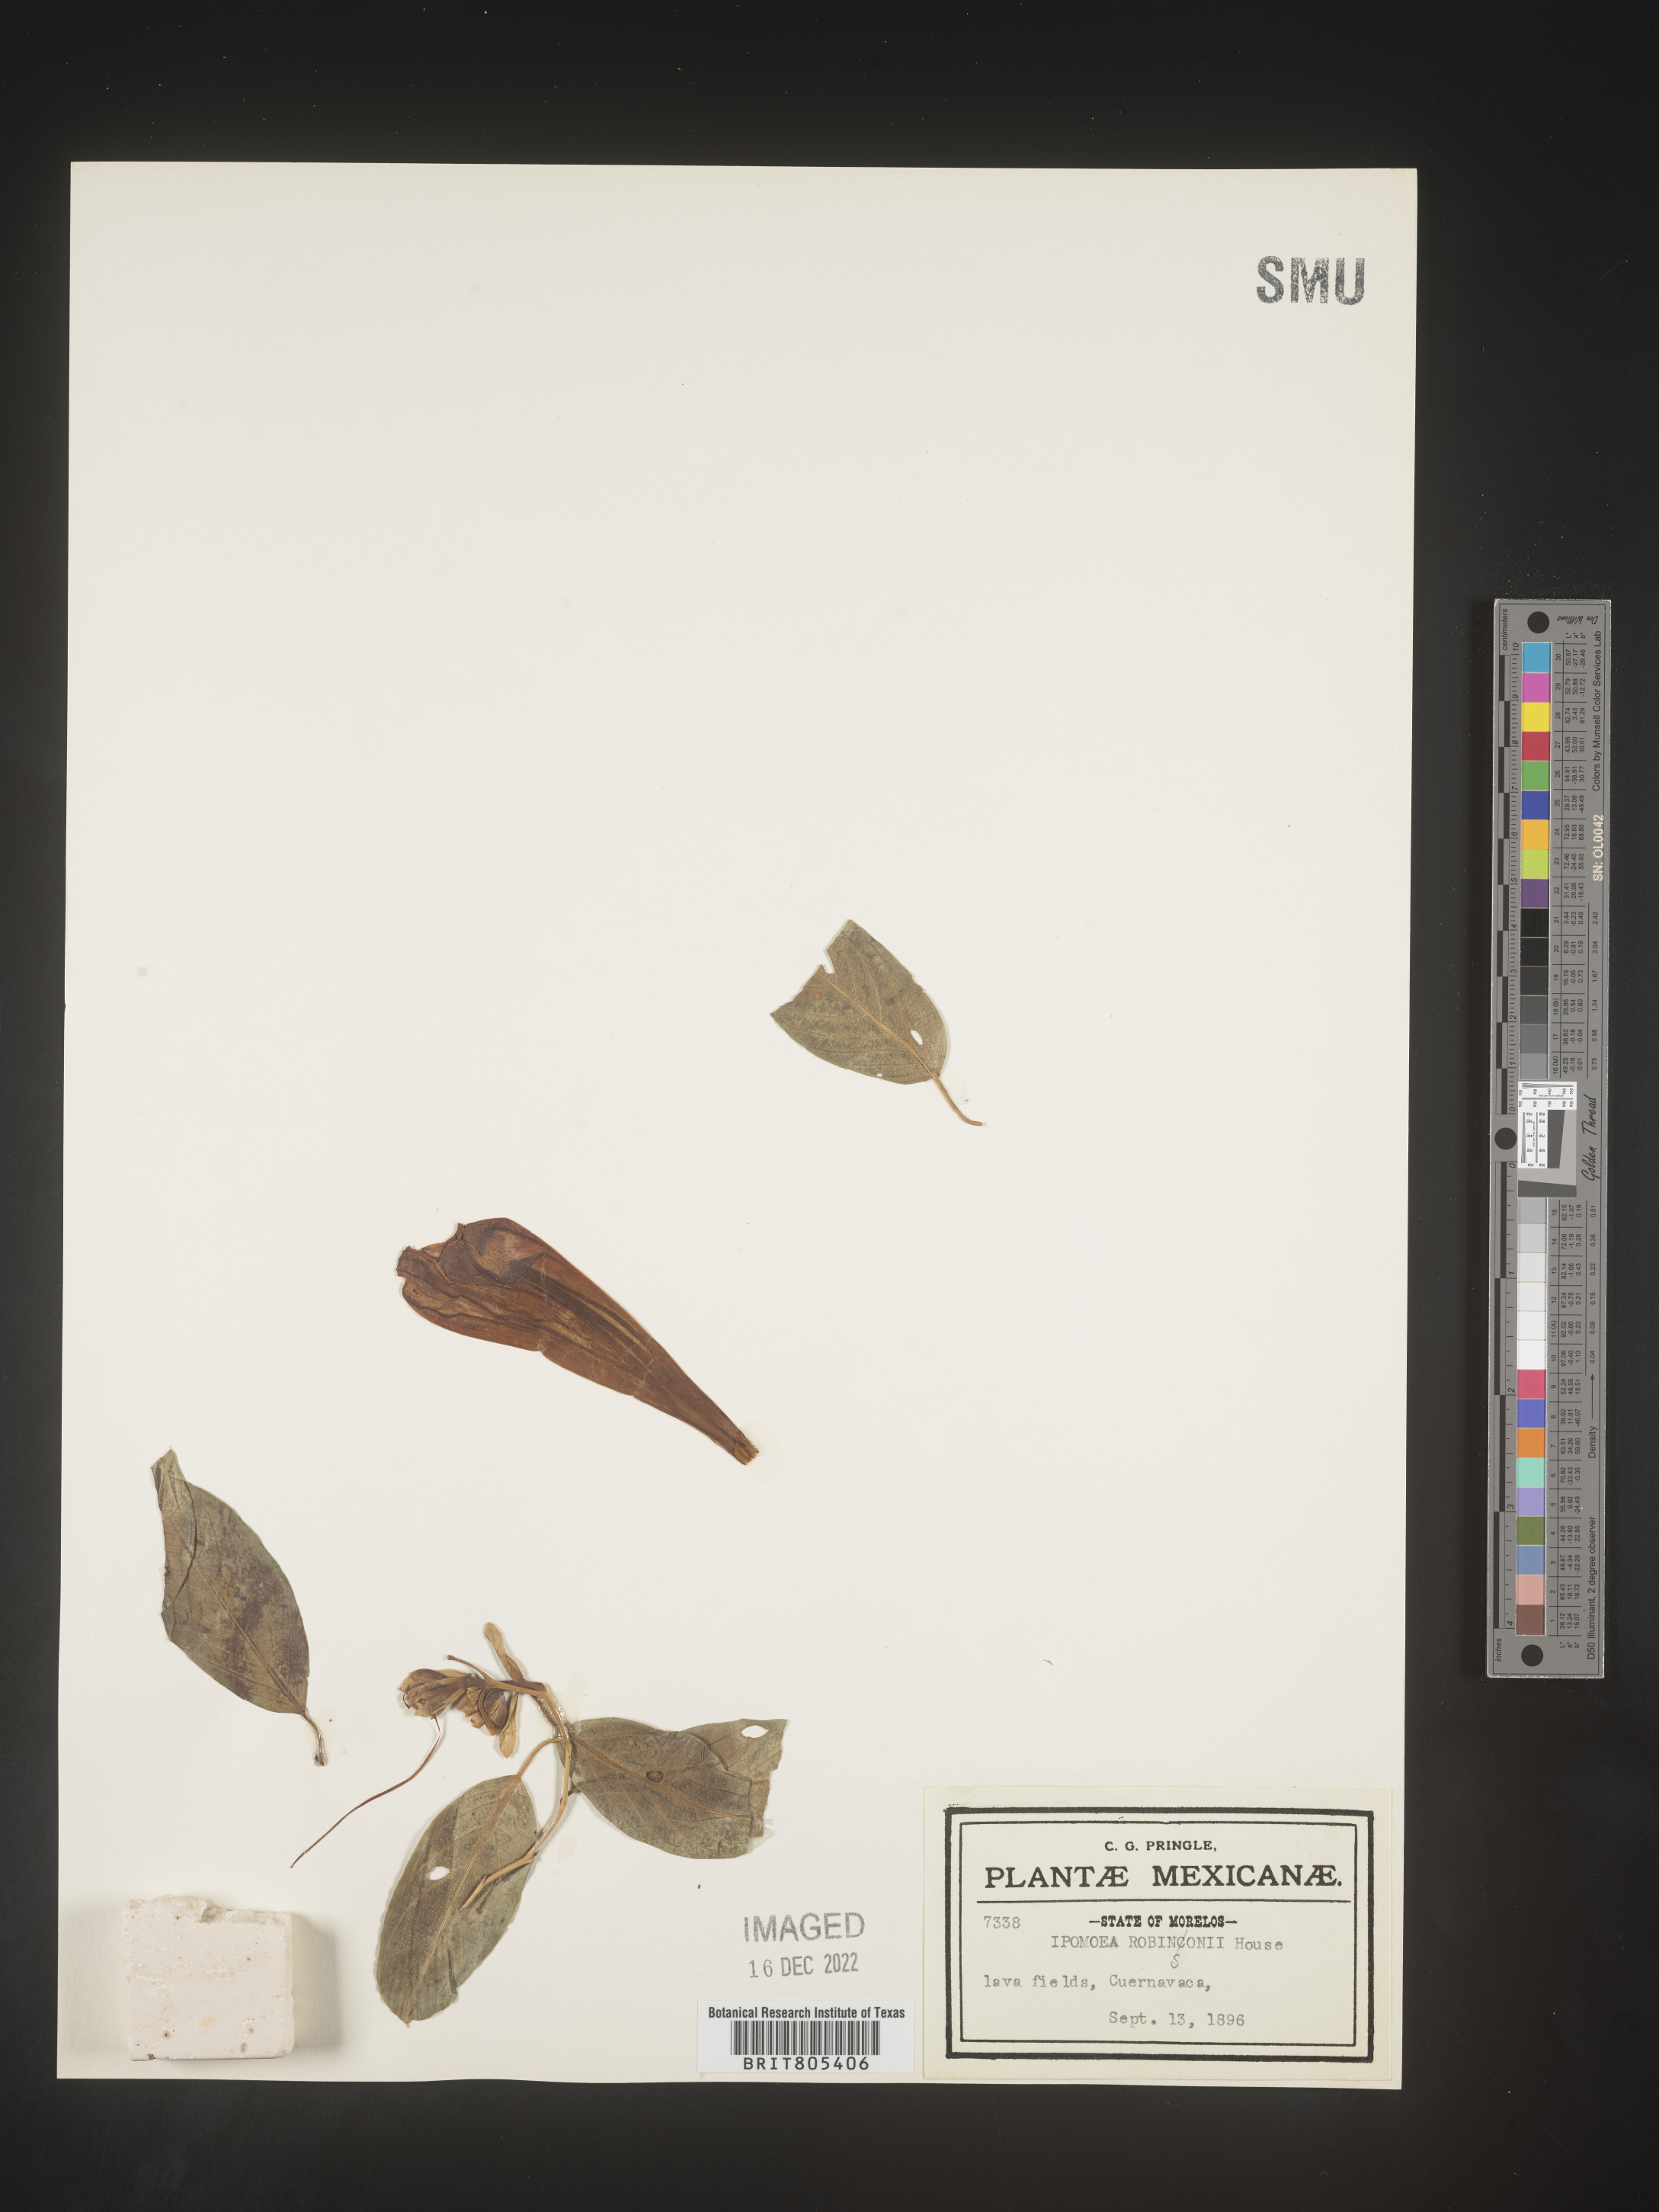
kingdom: Plantae
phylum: Tracheophyta
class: Magnoliopsida
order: Solanales
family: Convolvulaceae
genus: Ipomoea
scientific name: Ipomoea
